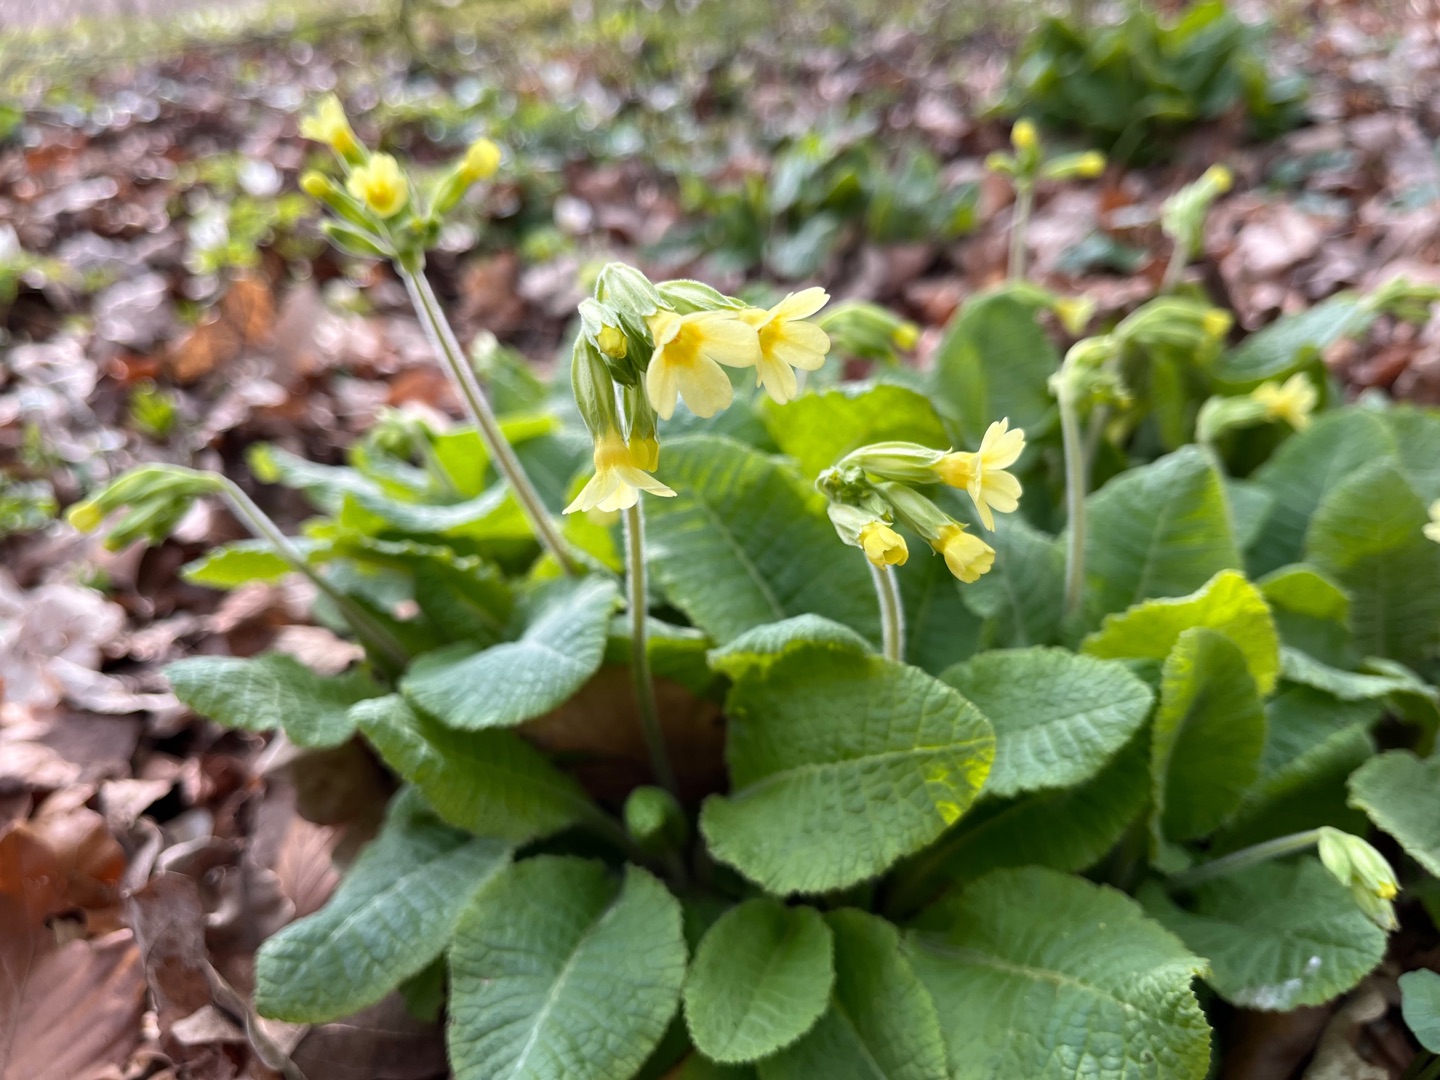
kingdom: Plantae
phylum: Tracheophyta
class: Magnoliopsida
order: Ericales
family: Primulaceae
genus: Primula
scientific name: Primula elatior
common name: Fladkravet kodriver
